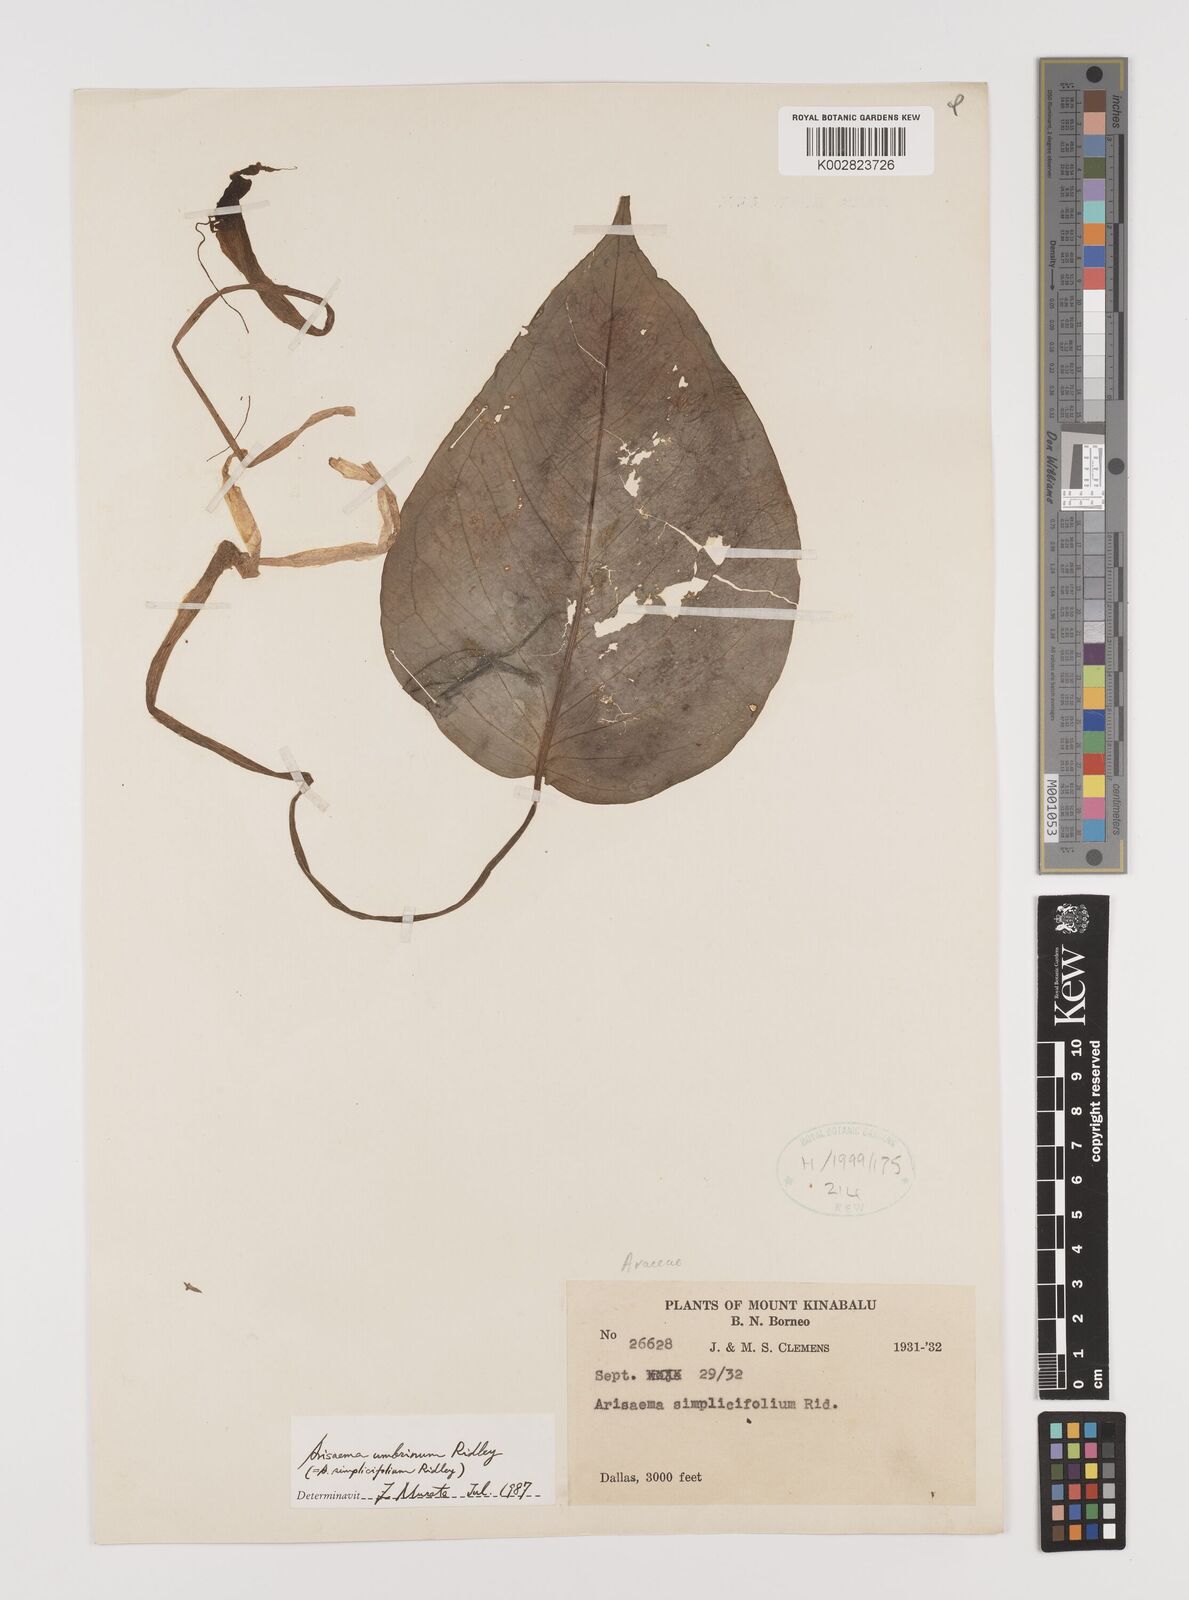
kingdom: Plantae
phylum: Tracheophyta
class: Liliopsida
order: Alismatales
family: Araceae
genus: Arisaema
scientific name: Arisaema umbrinum
